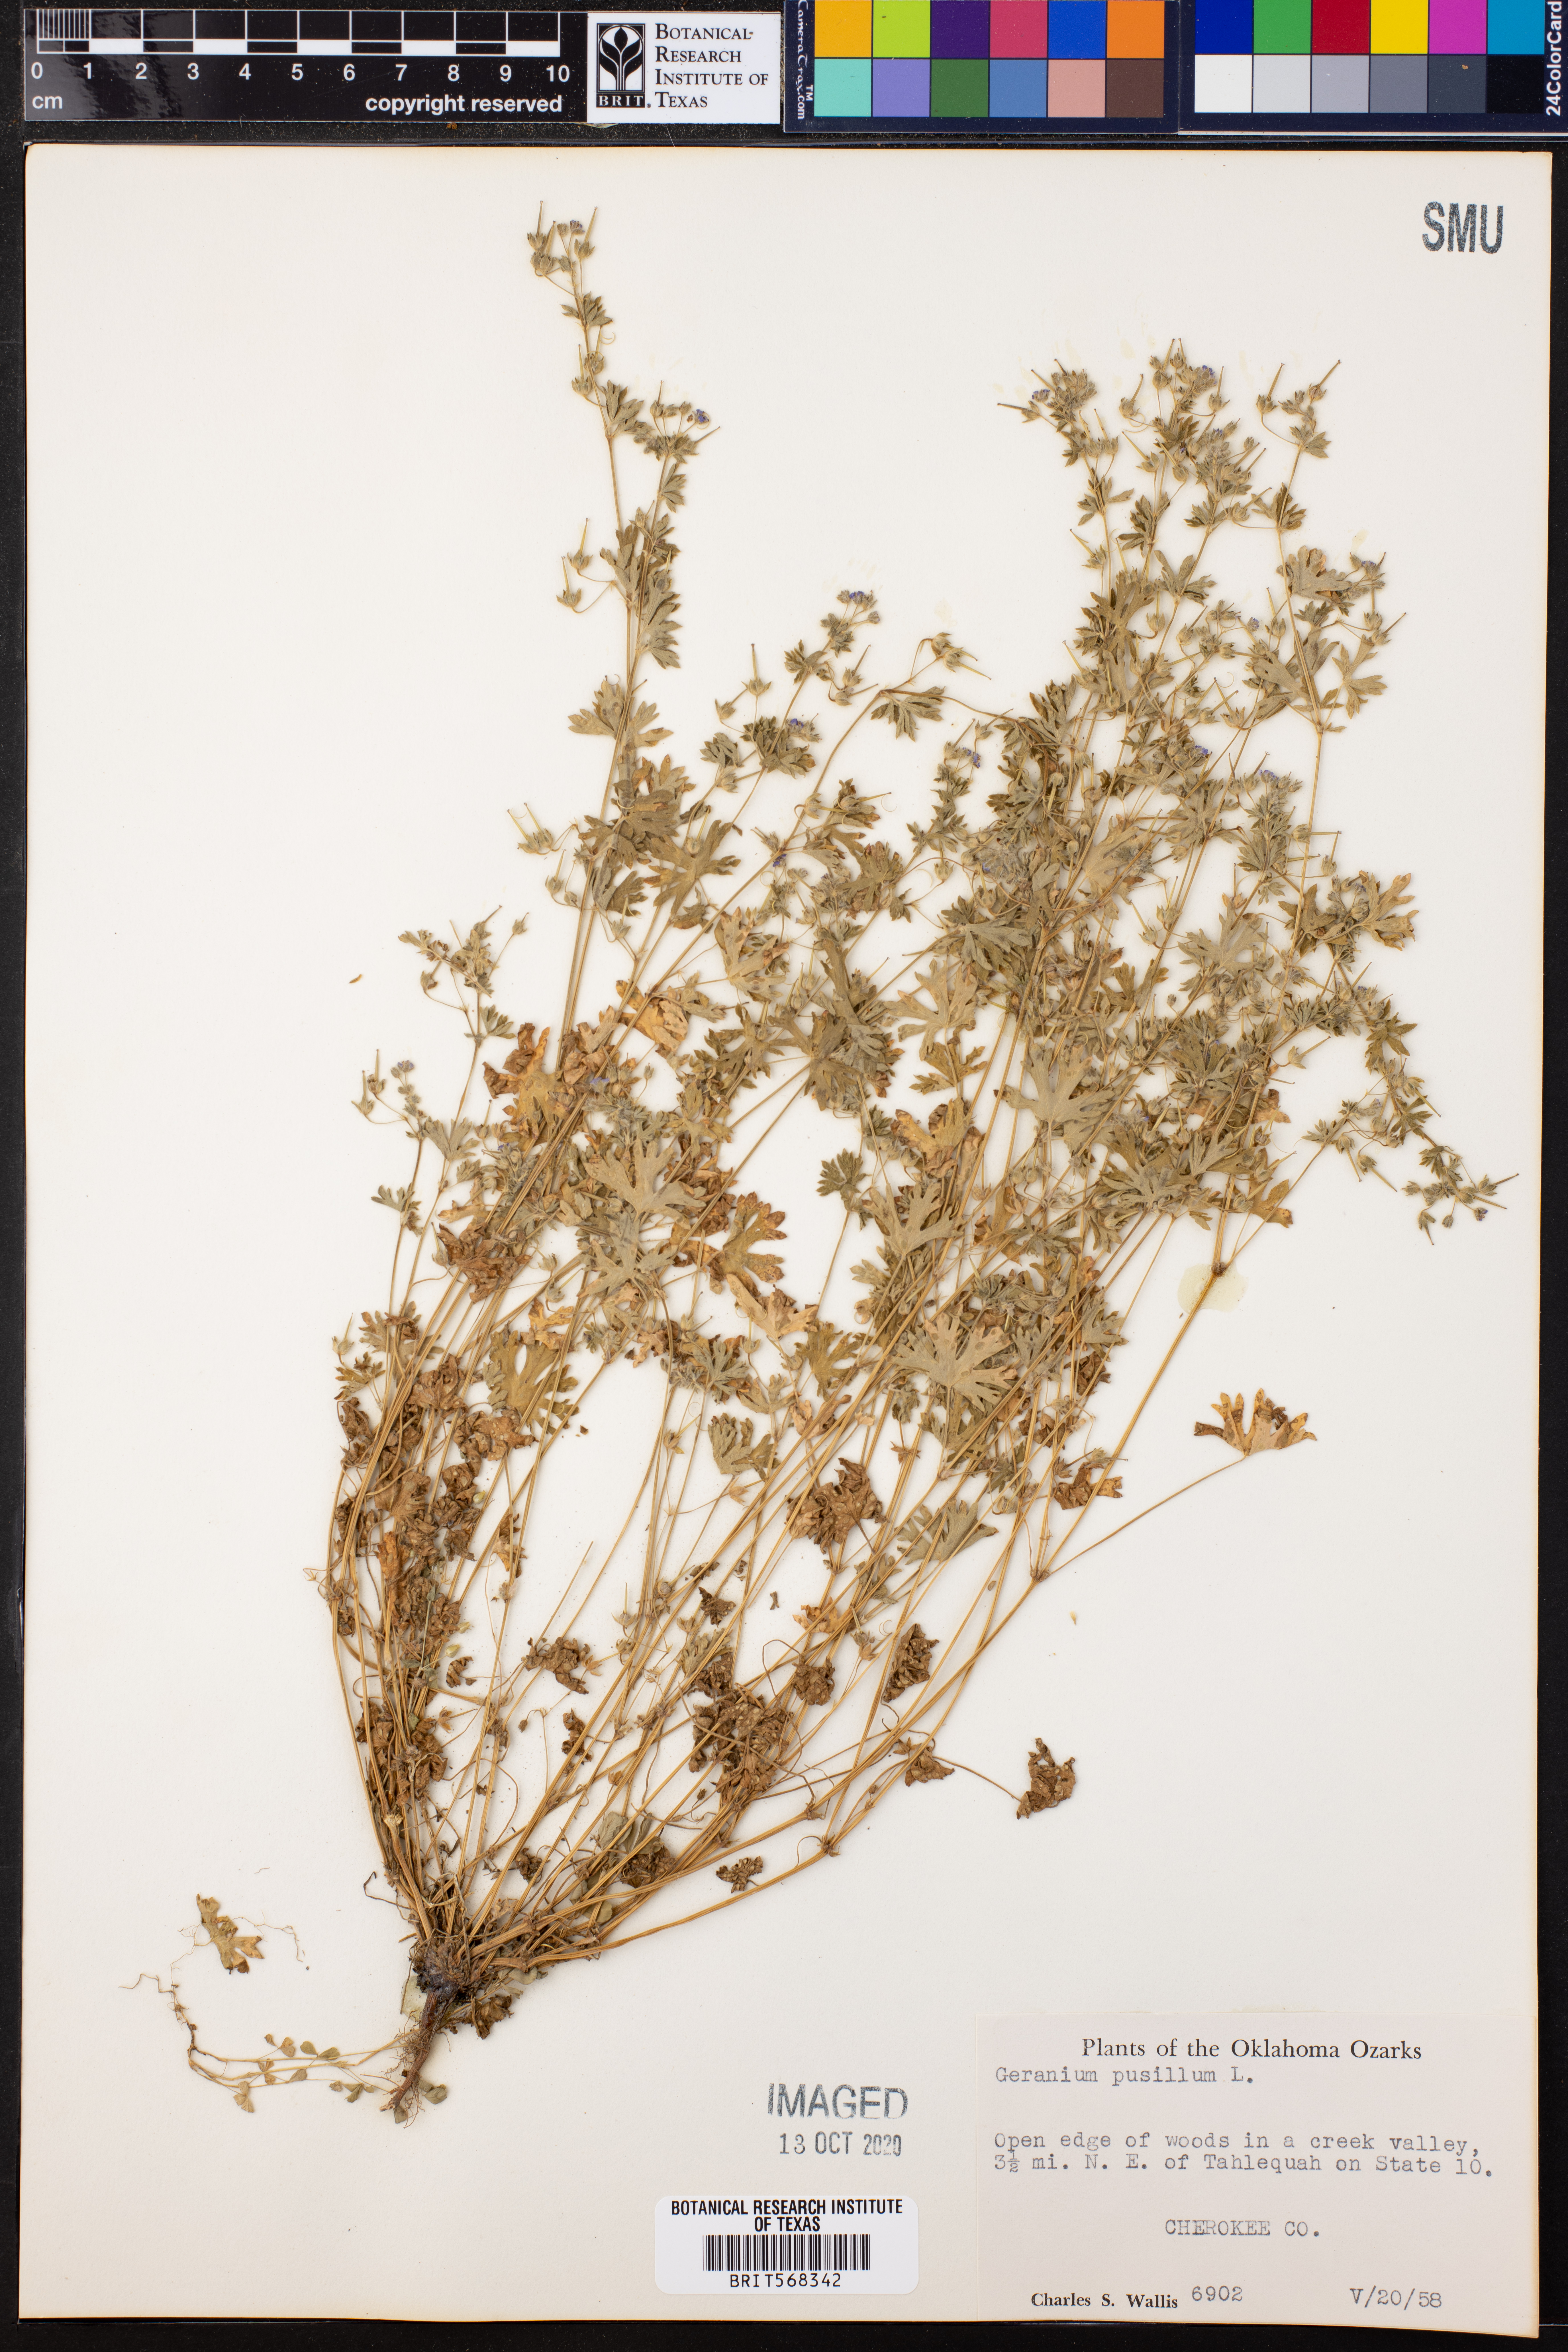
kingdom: Plantae
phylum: Tracheophyta
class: Magnoliopsida
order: Geraniales
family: Geraniaceae
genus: Geranium
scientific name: Geranium pusillum
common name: Small geranium
